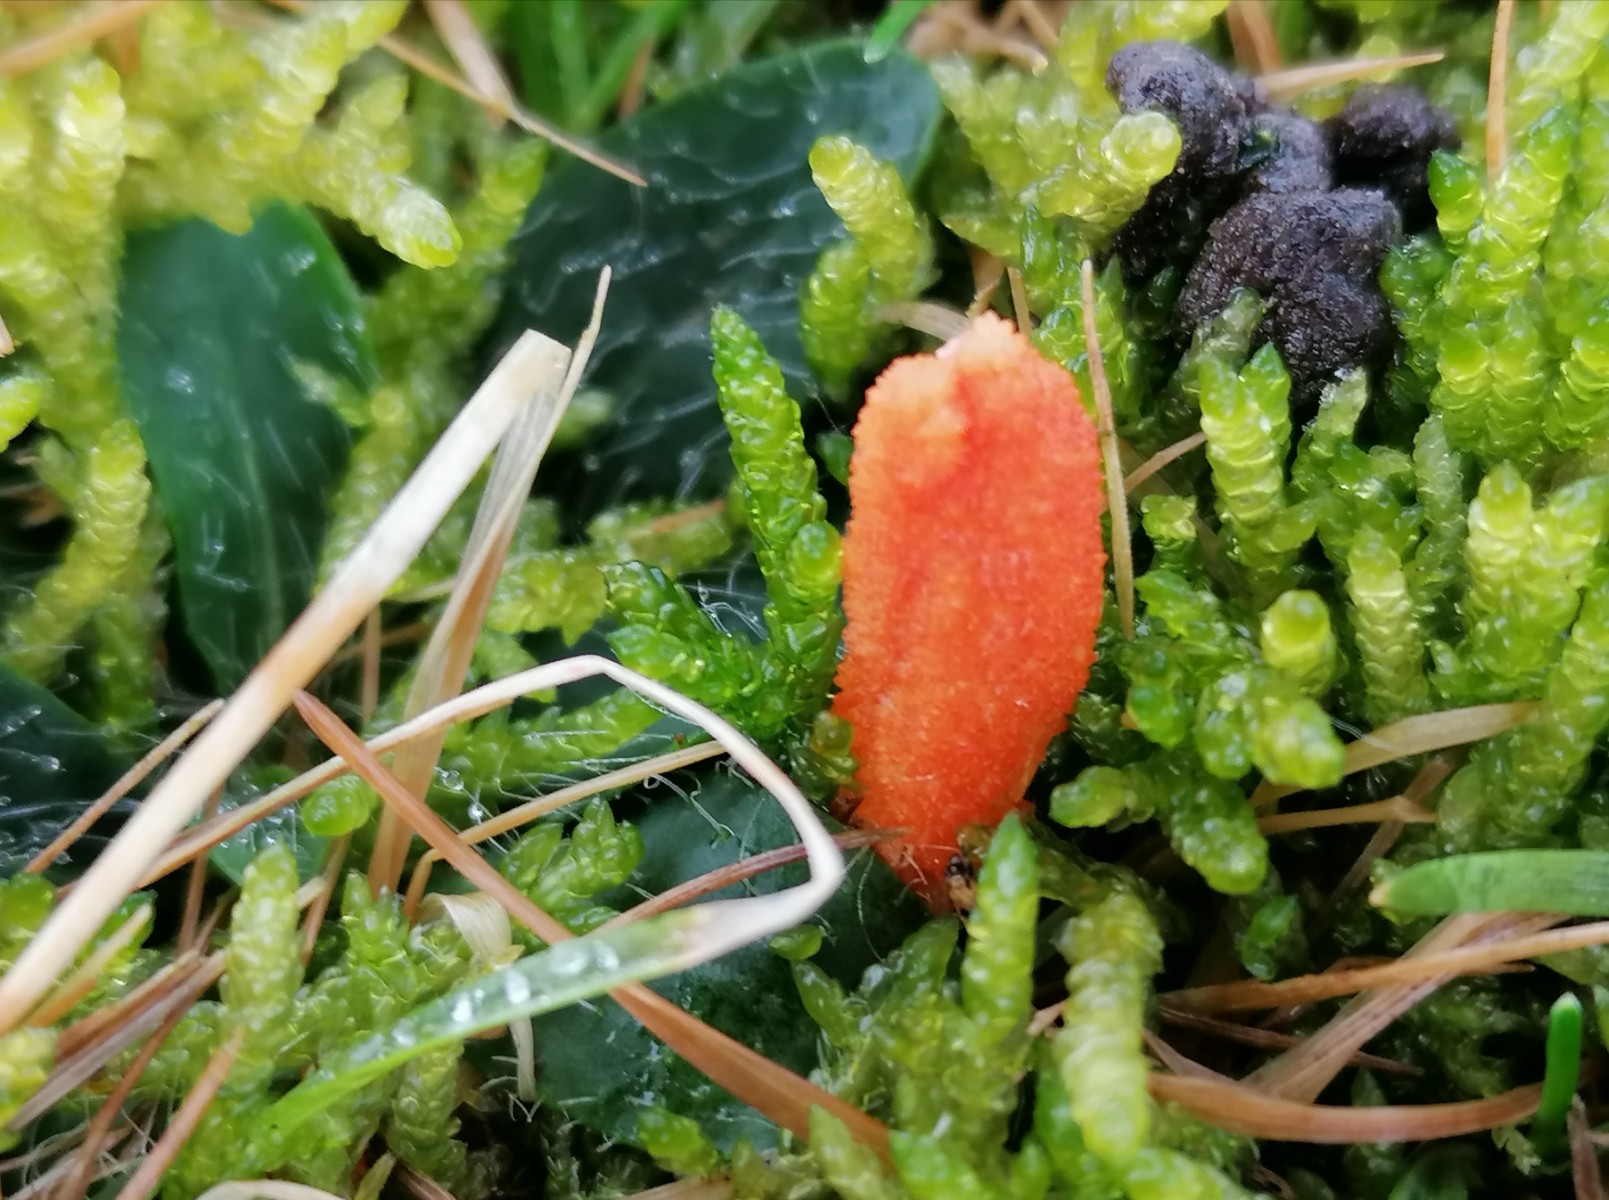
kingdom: Fungi
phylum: Ascomycota
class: Sordariomycetes
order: Hypocreales
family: Cordycipitaceae
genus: Cordyceps
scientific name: Cordyceps militaris
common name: puppe-snyltekølle
